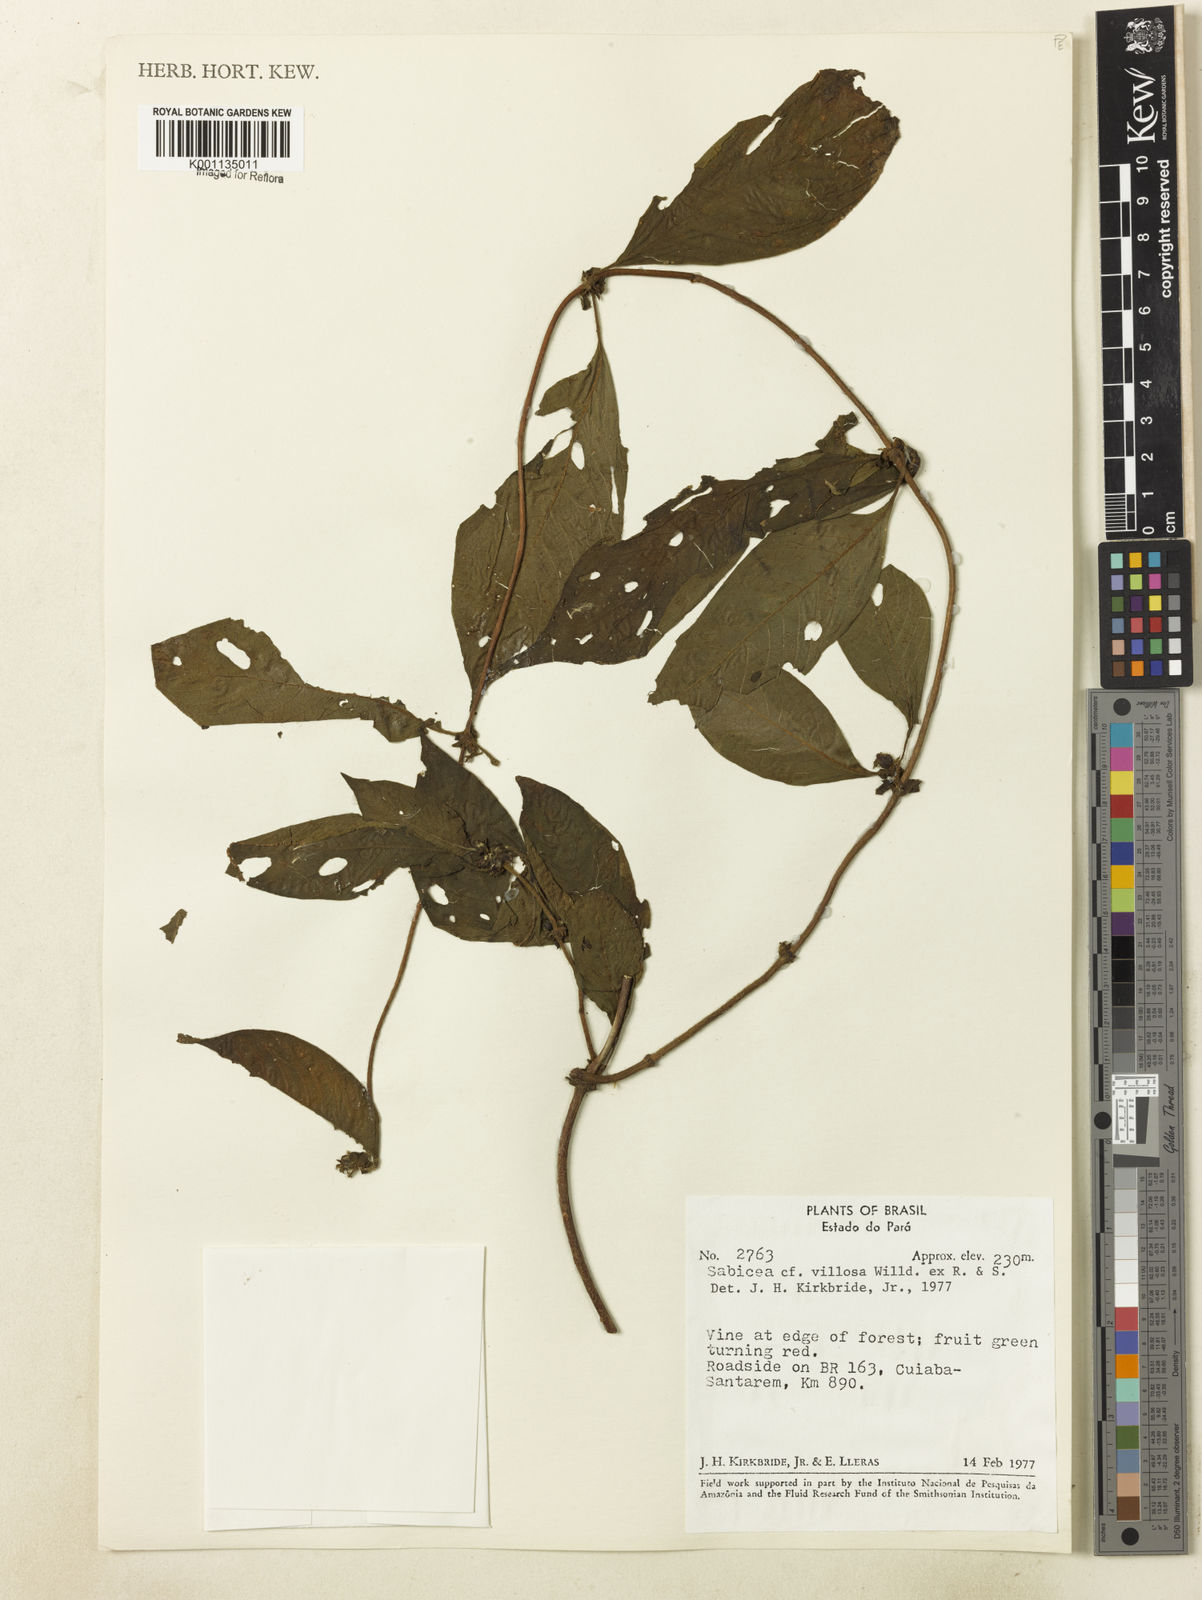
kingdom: Plantae
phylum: Tracheophyta
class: Magnoliopsida
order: Gentianales
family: Rubiaceae
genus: Sabicea
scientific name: Sabicea villosa
